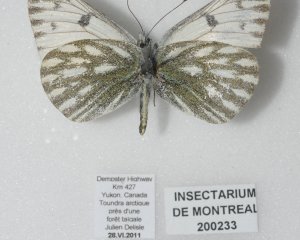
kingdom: Animalia
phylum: Arthropoda
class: Insecta
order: Lepidoptera
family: Pieridae
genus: Pontia
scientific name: Pontia occidentalis
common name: Western White
